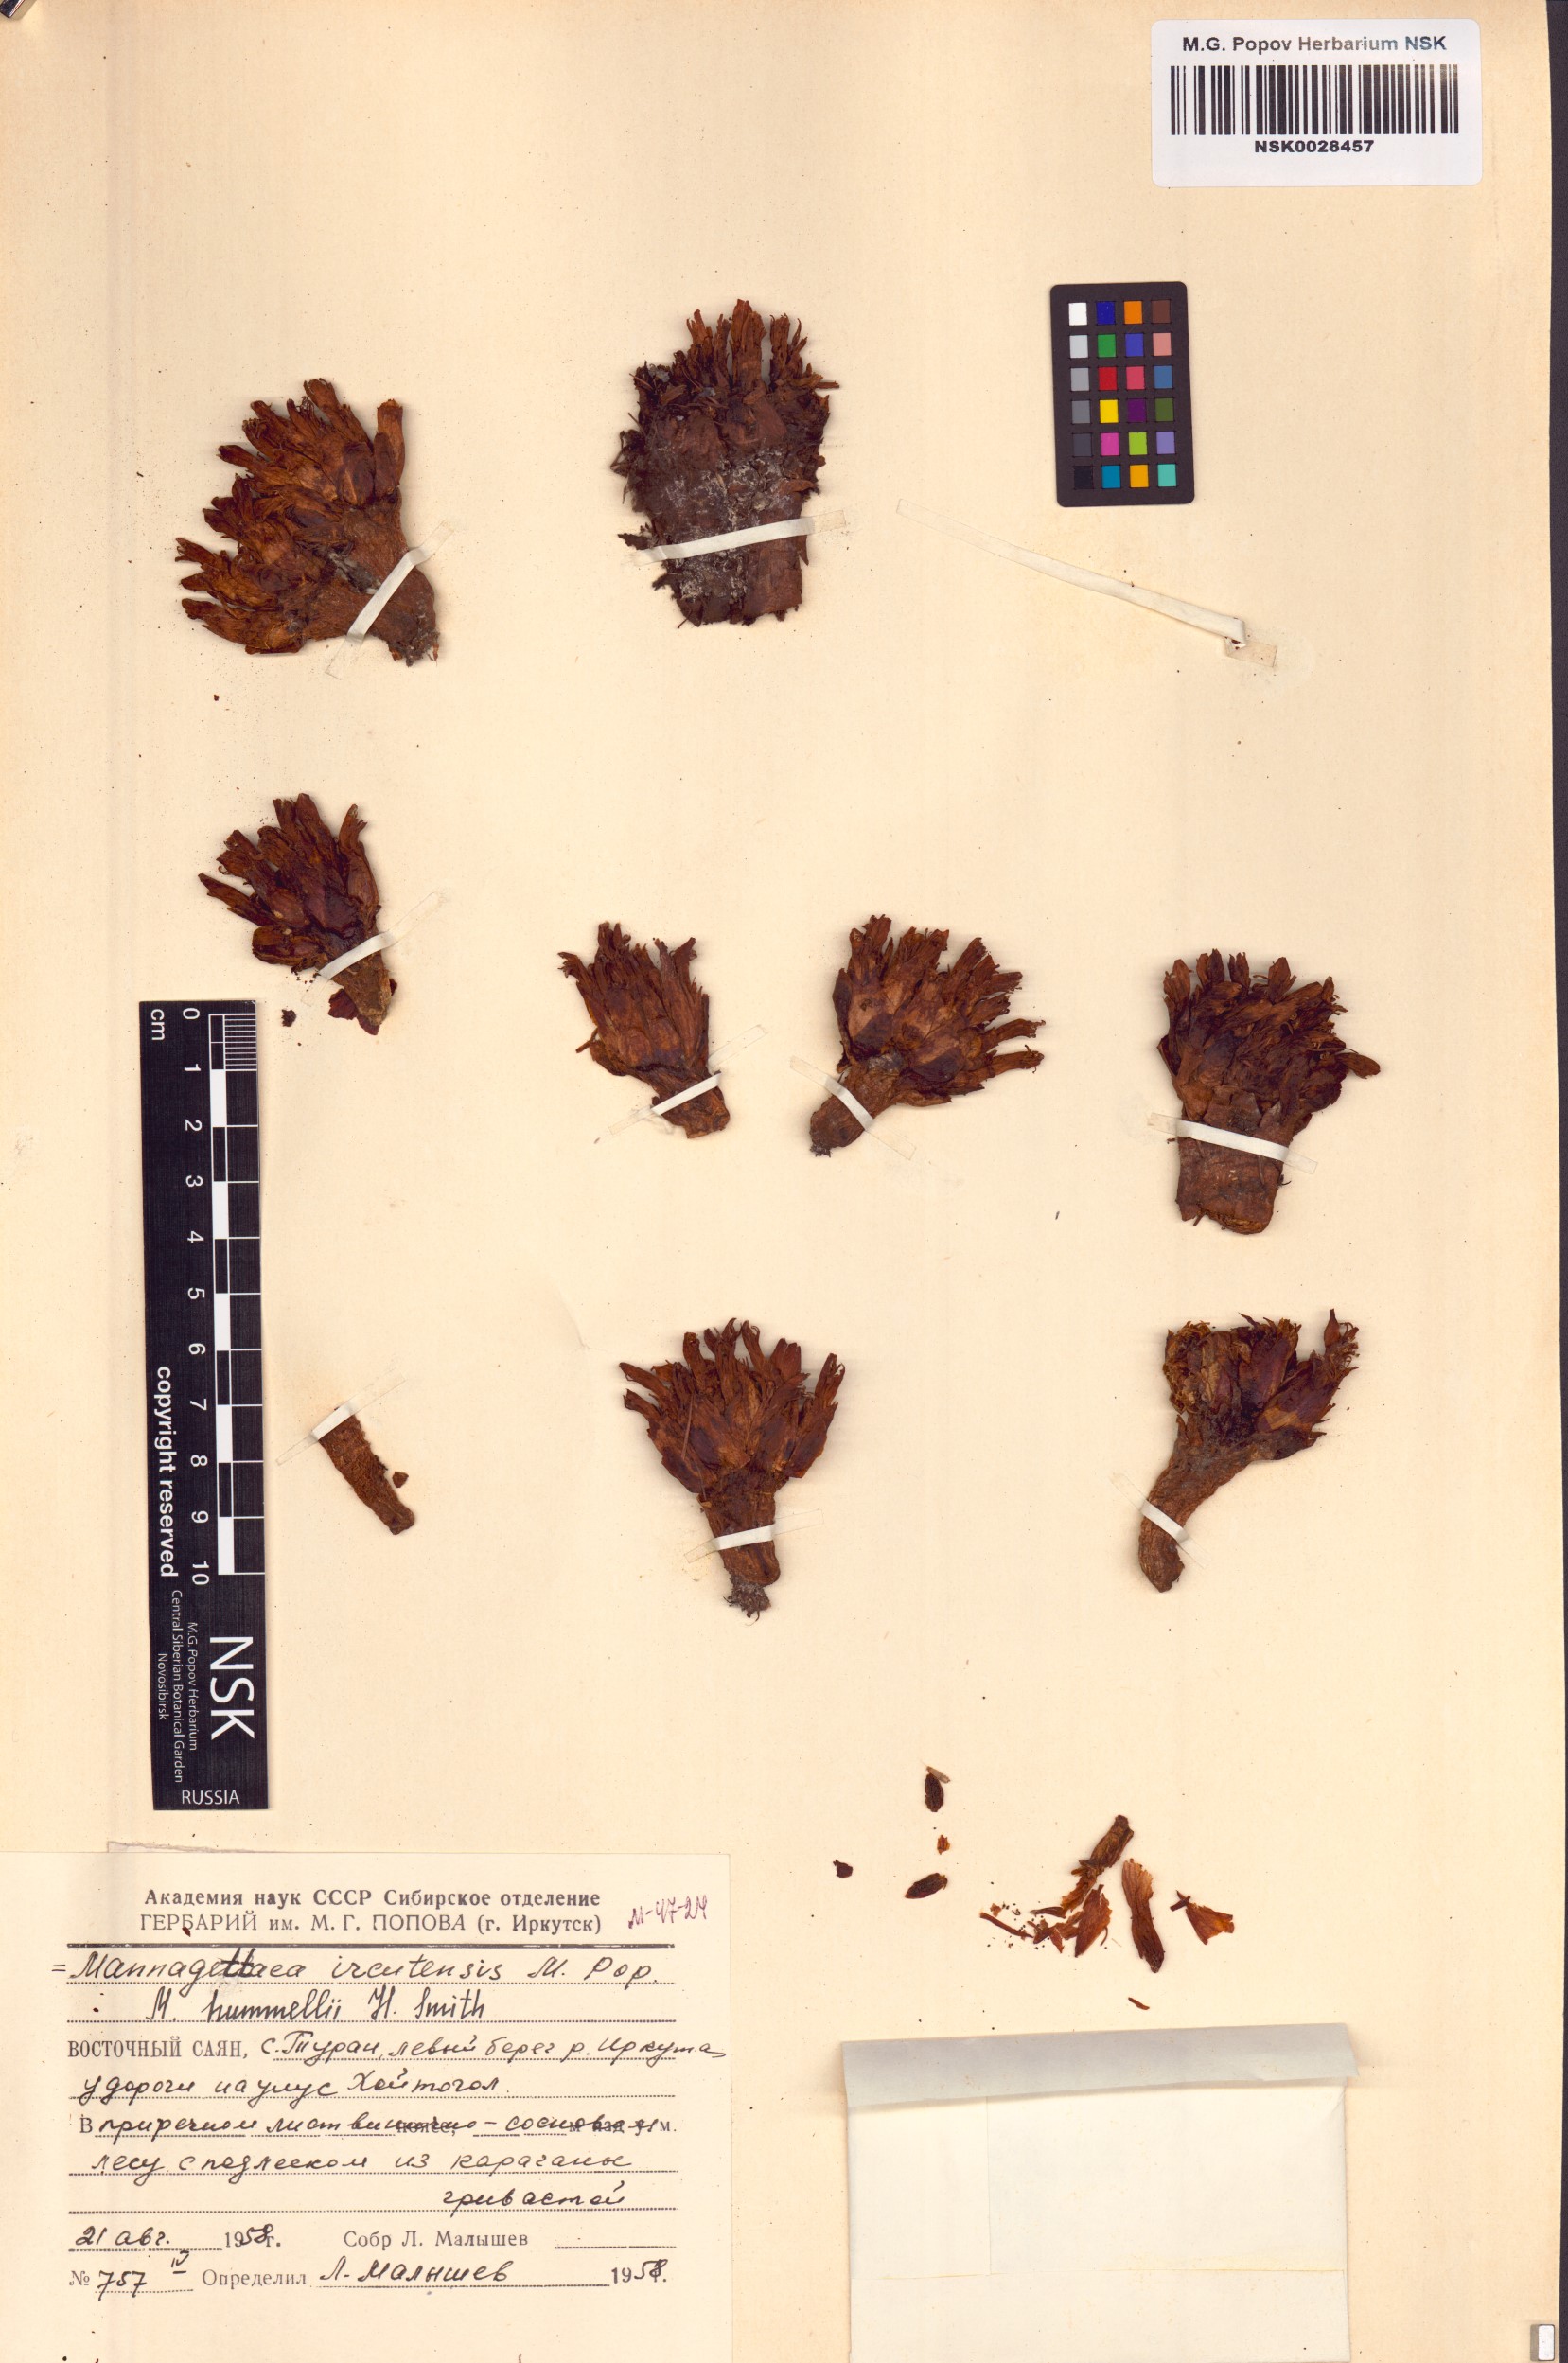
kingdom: Plantae
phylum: Tracheophyta
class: Magnoliopsida
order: Lamiales
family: Orobanchaceae
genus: Mannagettaea
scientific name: Mannagettaea hummelii
